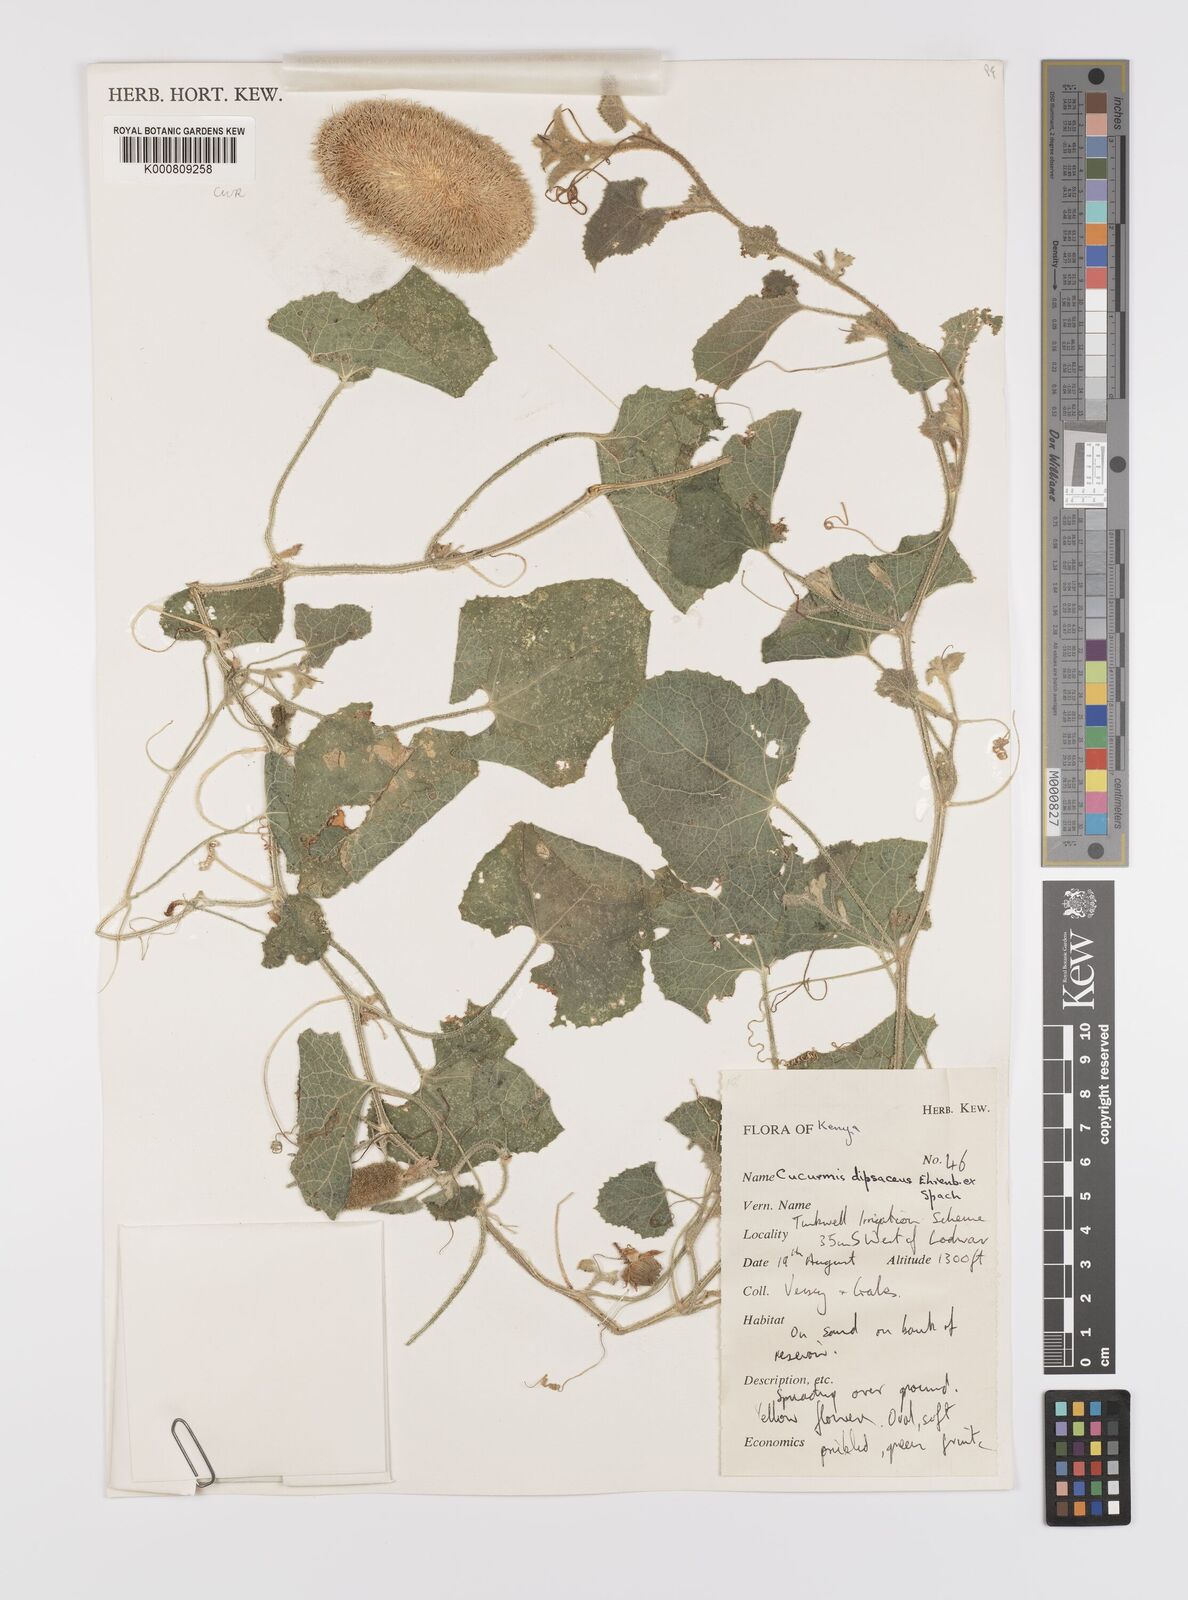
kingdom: Plantae
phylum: Tracheophyta
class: Magnoliopsida
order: Cucurbitales
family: Cucurbitaceae
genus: Cucumis
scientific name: Cucumis dipsaceus
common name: Hedgehog gourd
